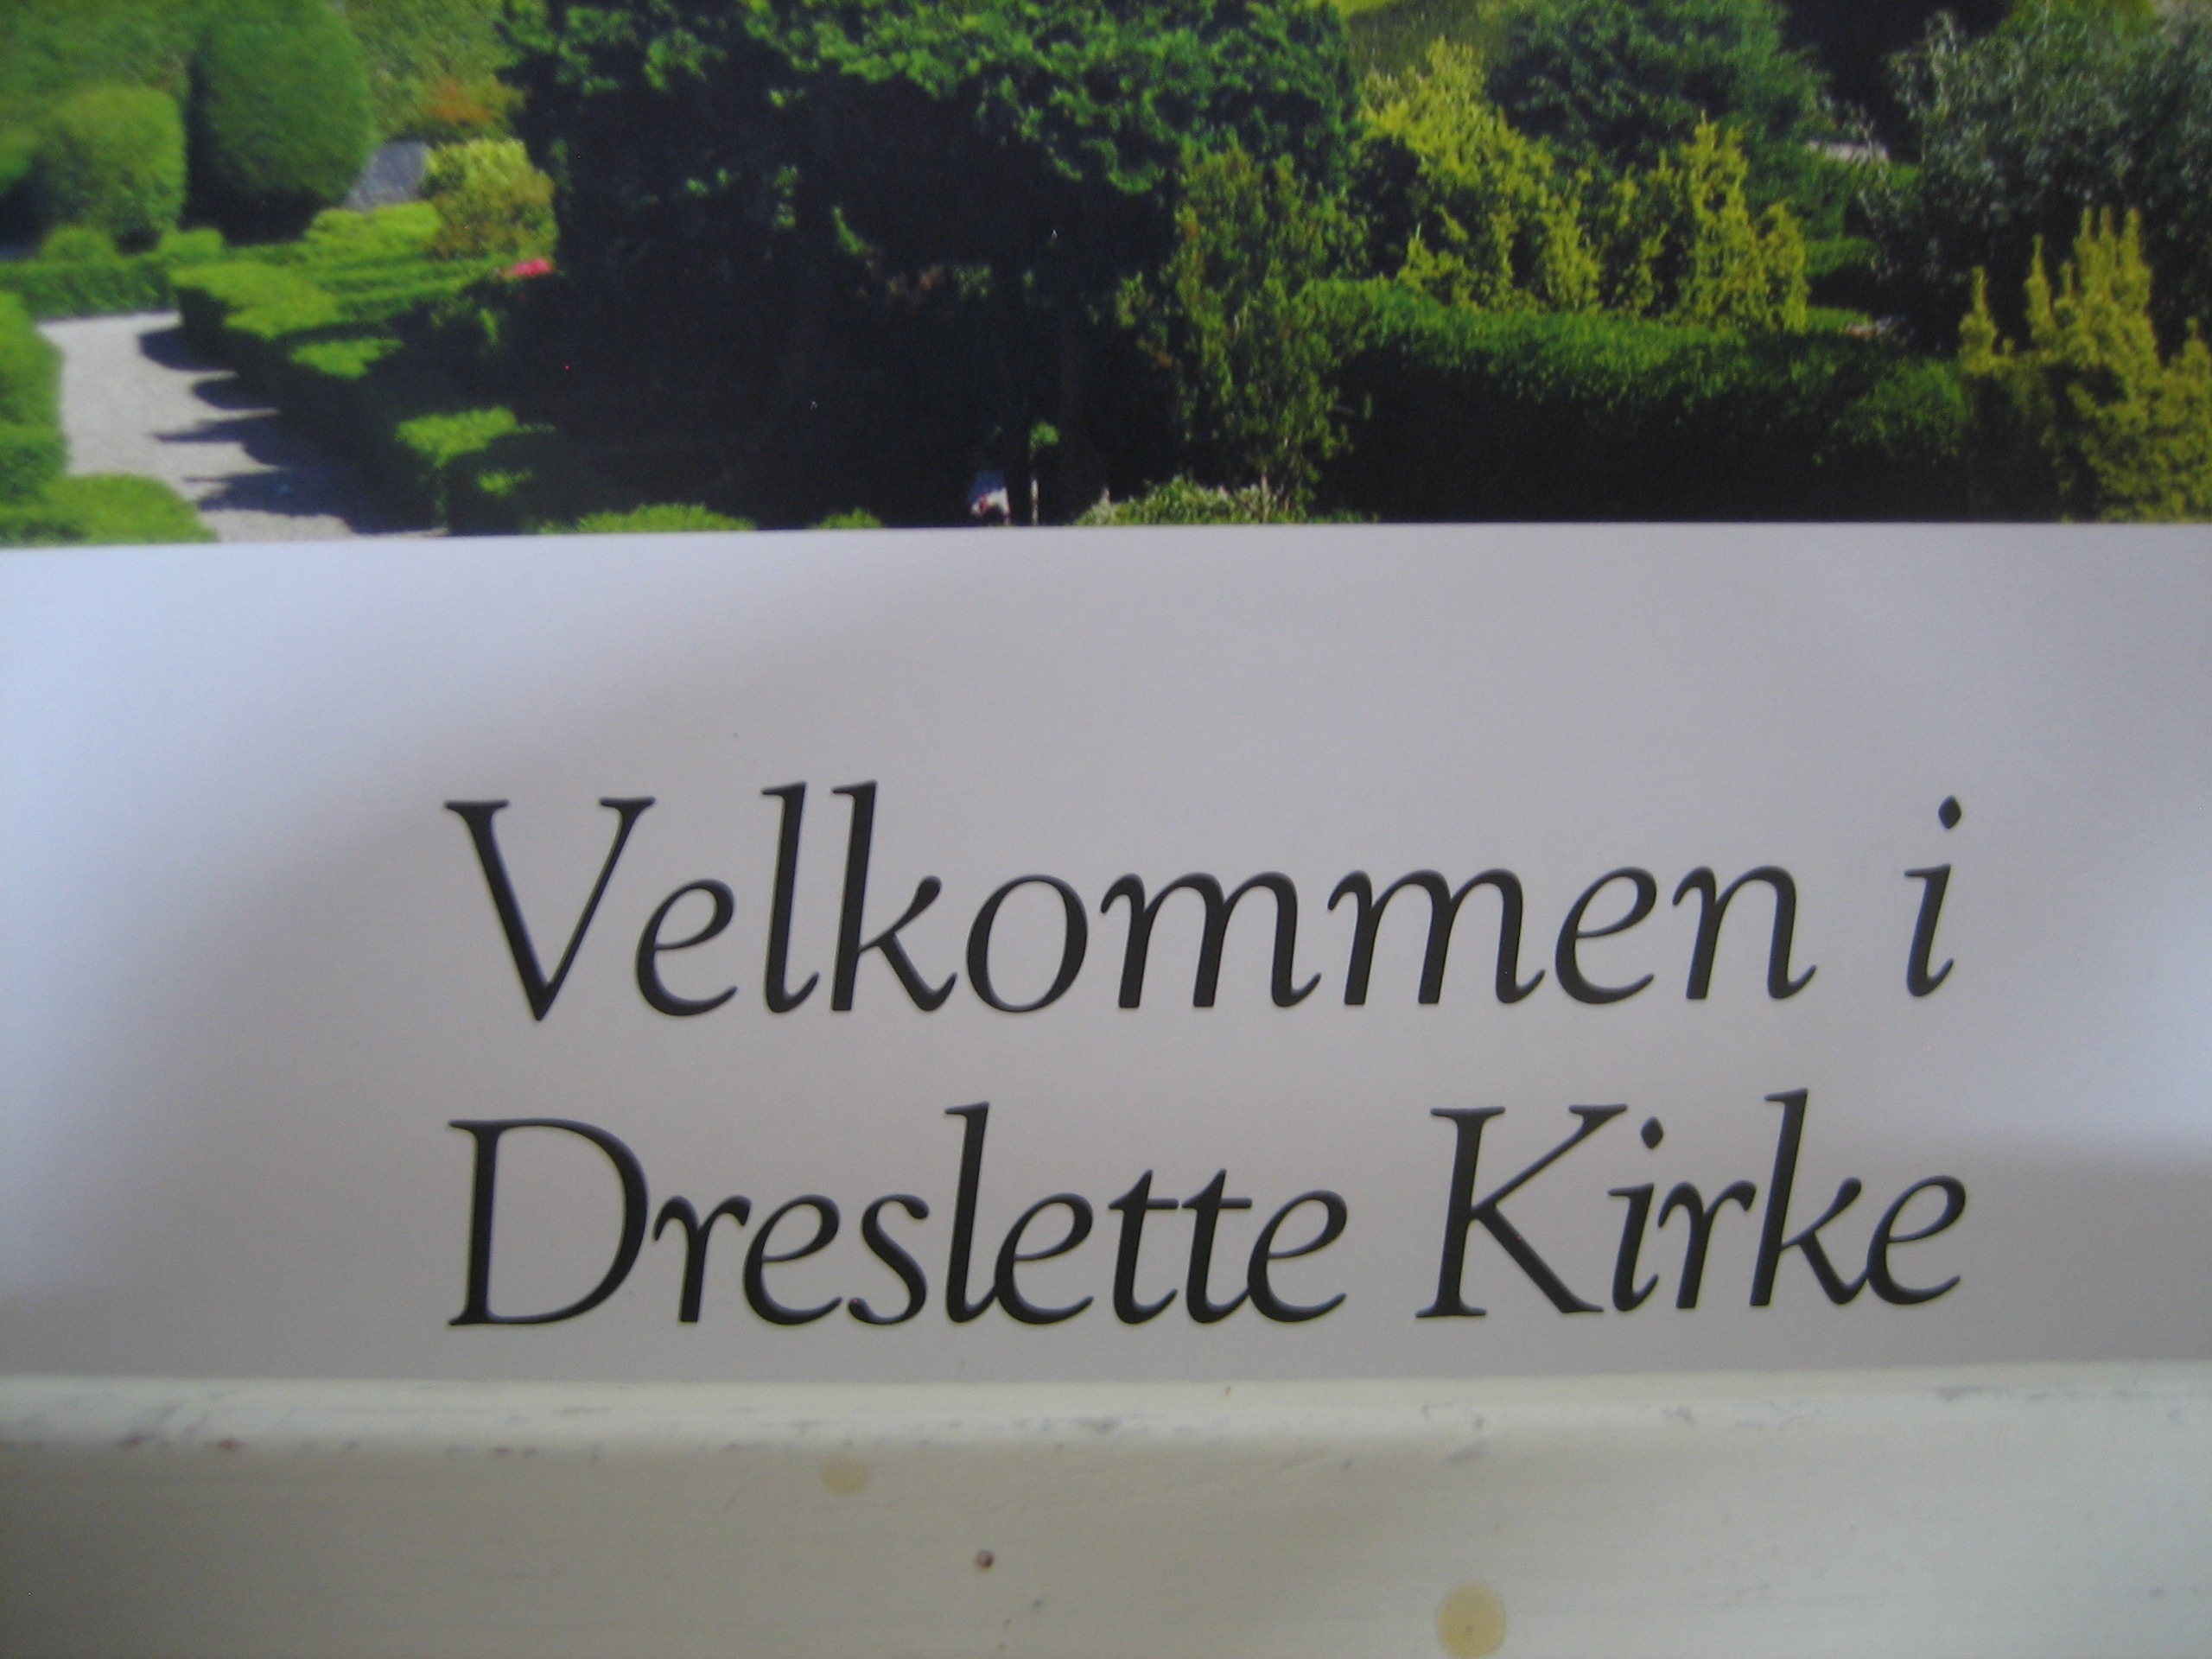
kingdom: Animalia
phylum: Chordata
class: Mammalia
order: Chiroptera
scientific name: Chiroptera
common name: Flagermus
